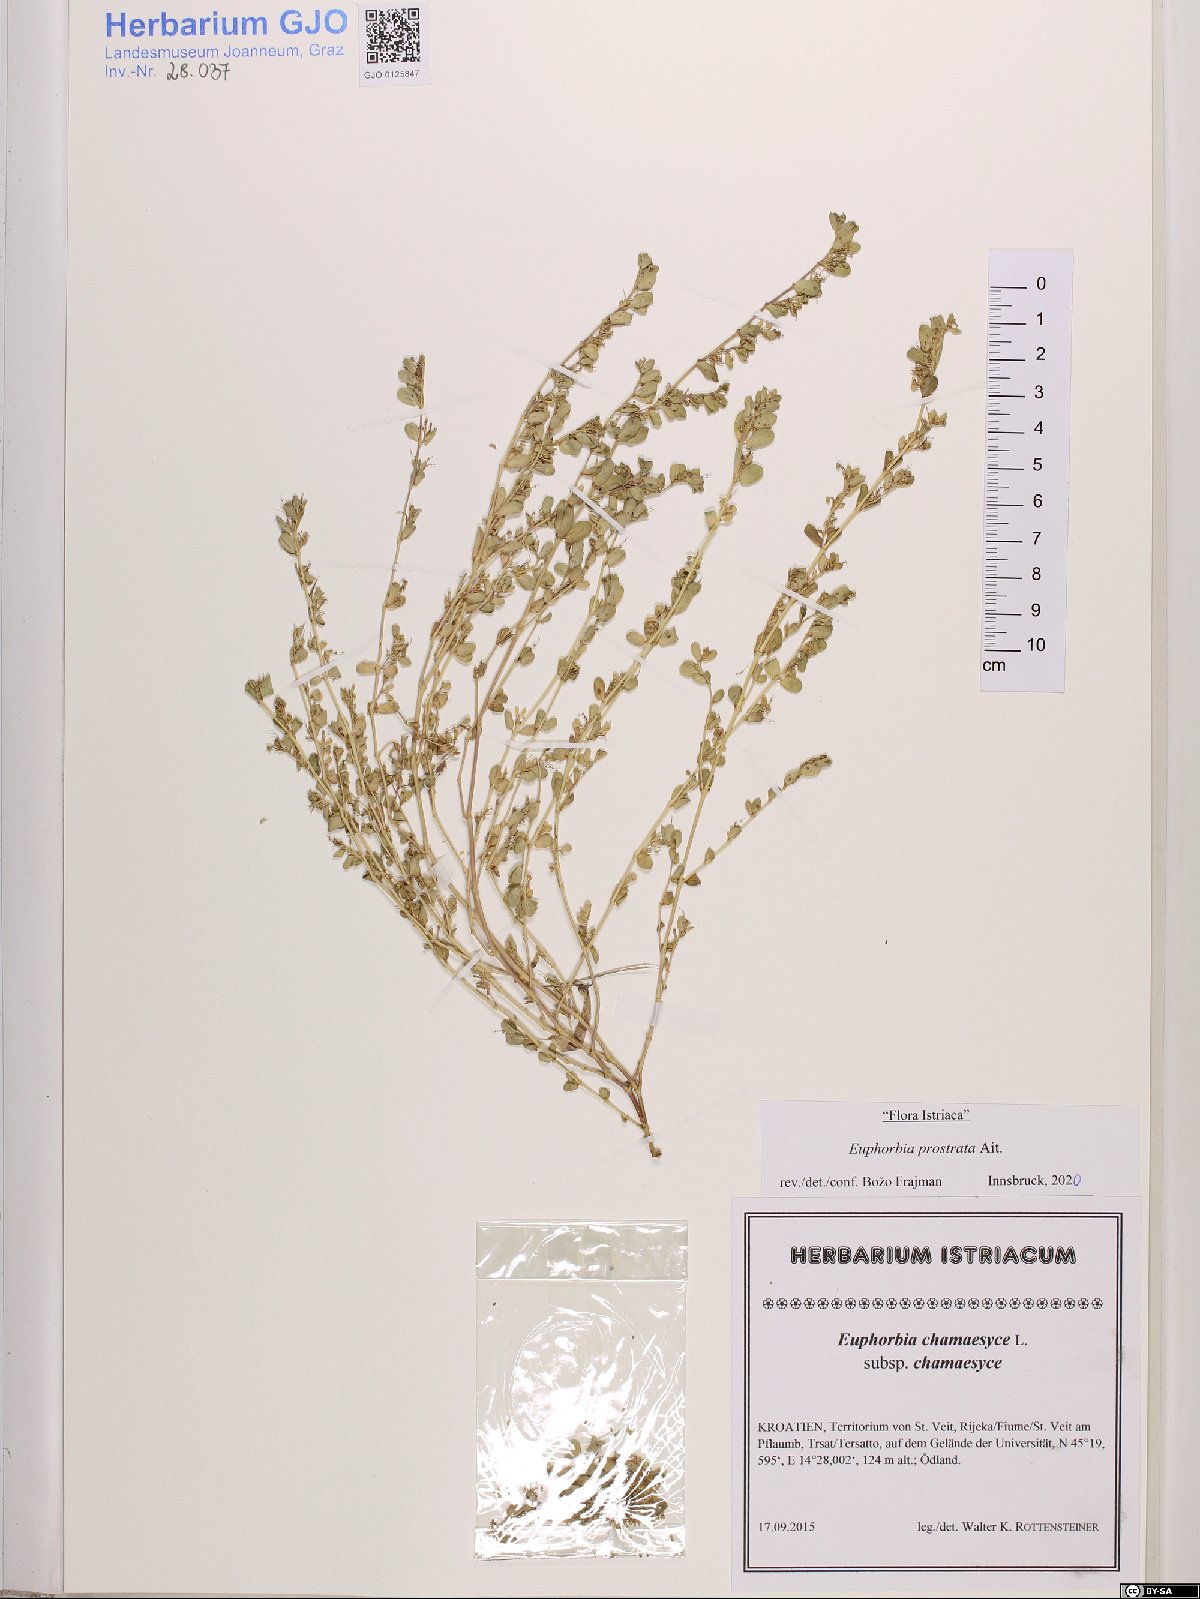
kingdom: Plantae
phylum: Tracheophyta
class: Magnoliopsida
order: Malpighiales
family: Euphorbiaceae
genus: Euphorbia
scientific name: Euphorbia prostrata
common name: Prostrate sandmat
